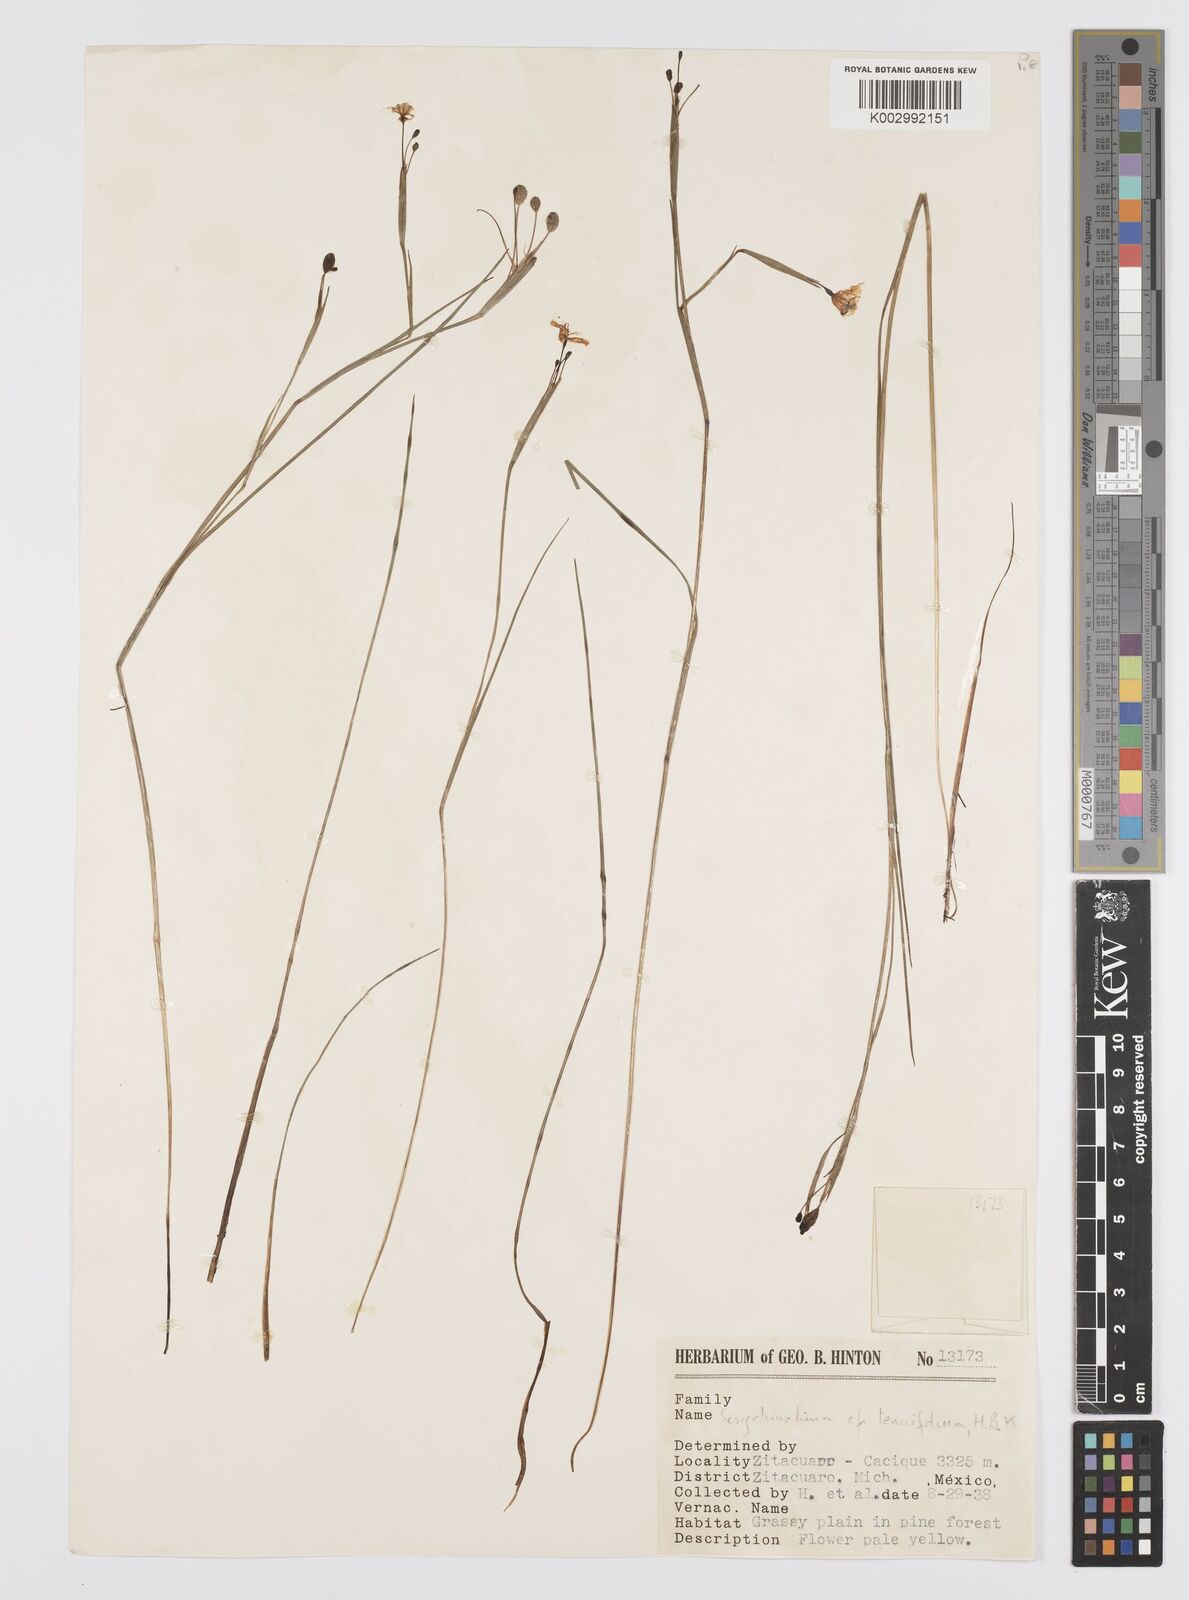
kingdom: Plantae
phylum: Tracheophyta
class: Liliopsida
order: Asparagales
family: Iridaceae
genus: Sisyrinchium
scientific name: Sisyrinchium langloisii
